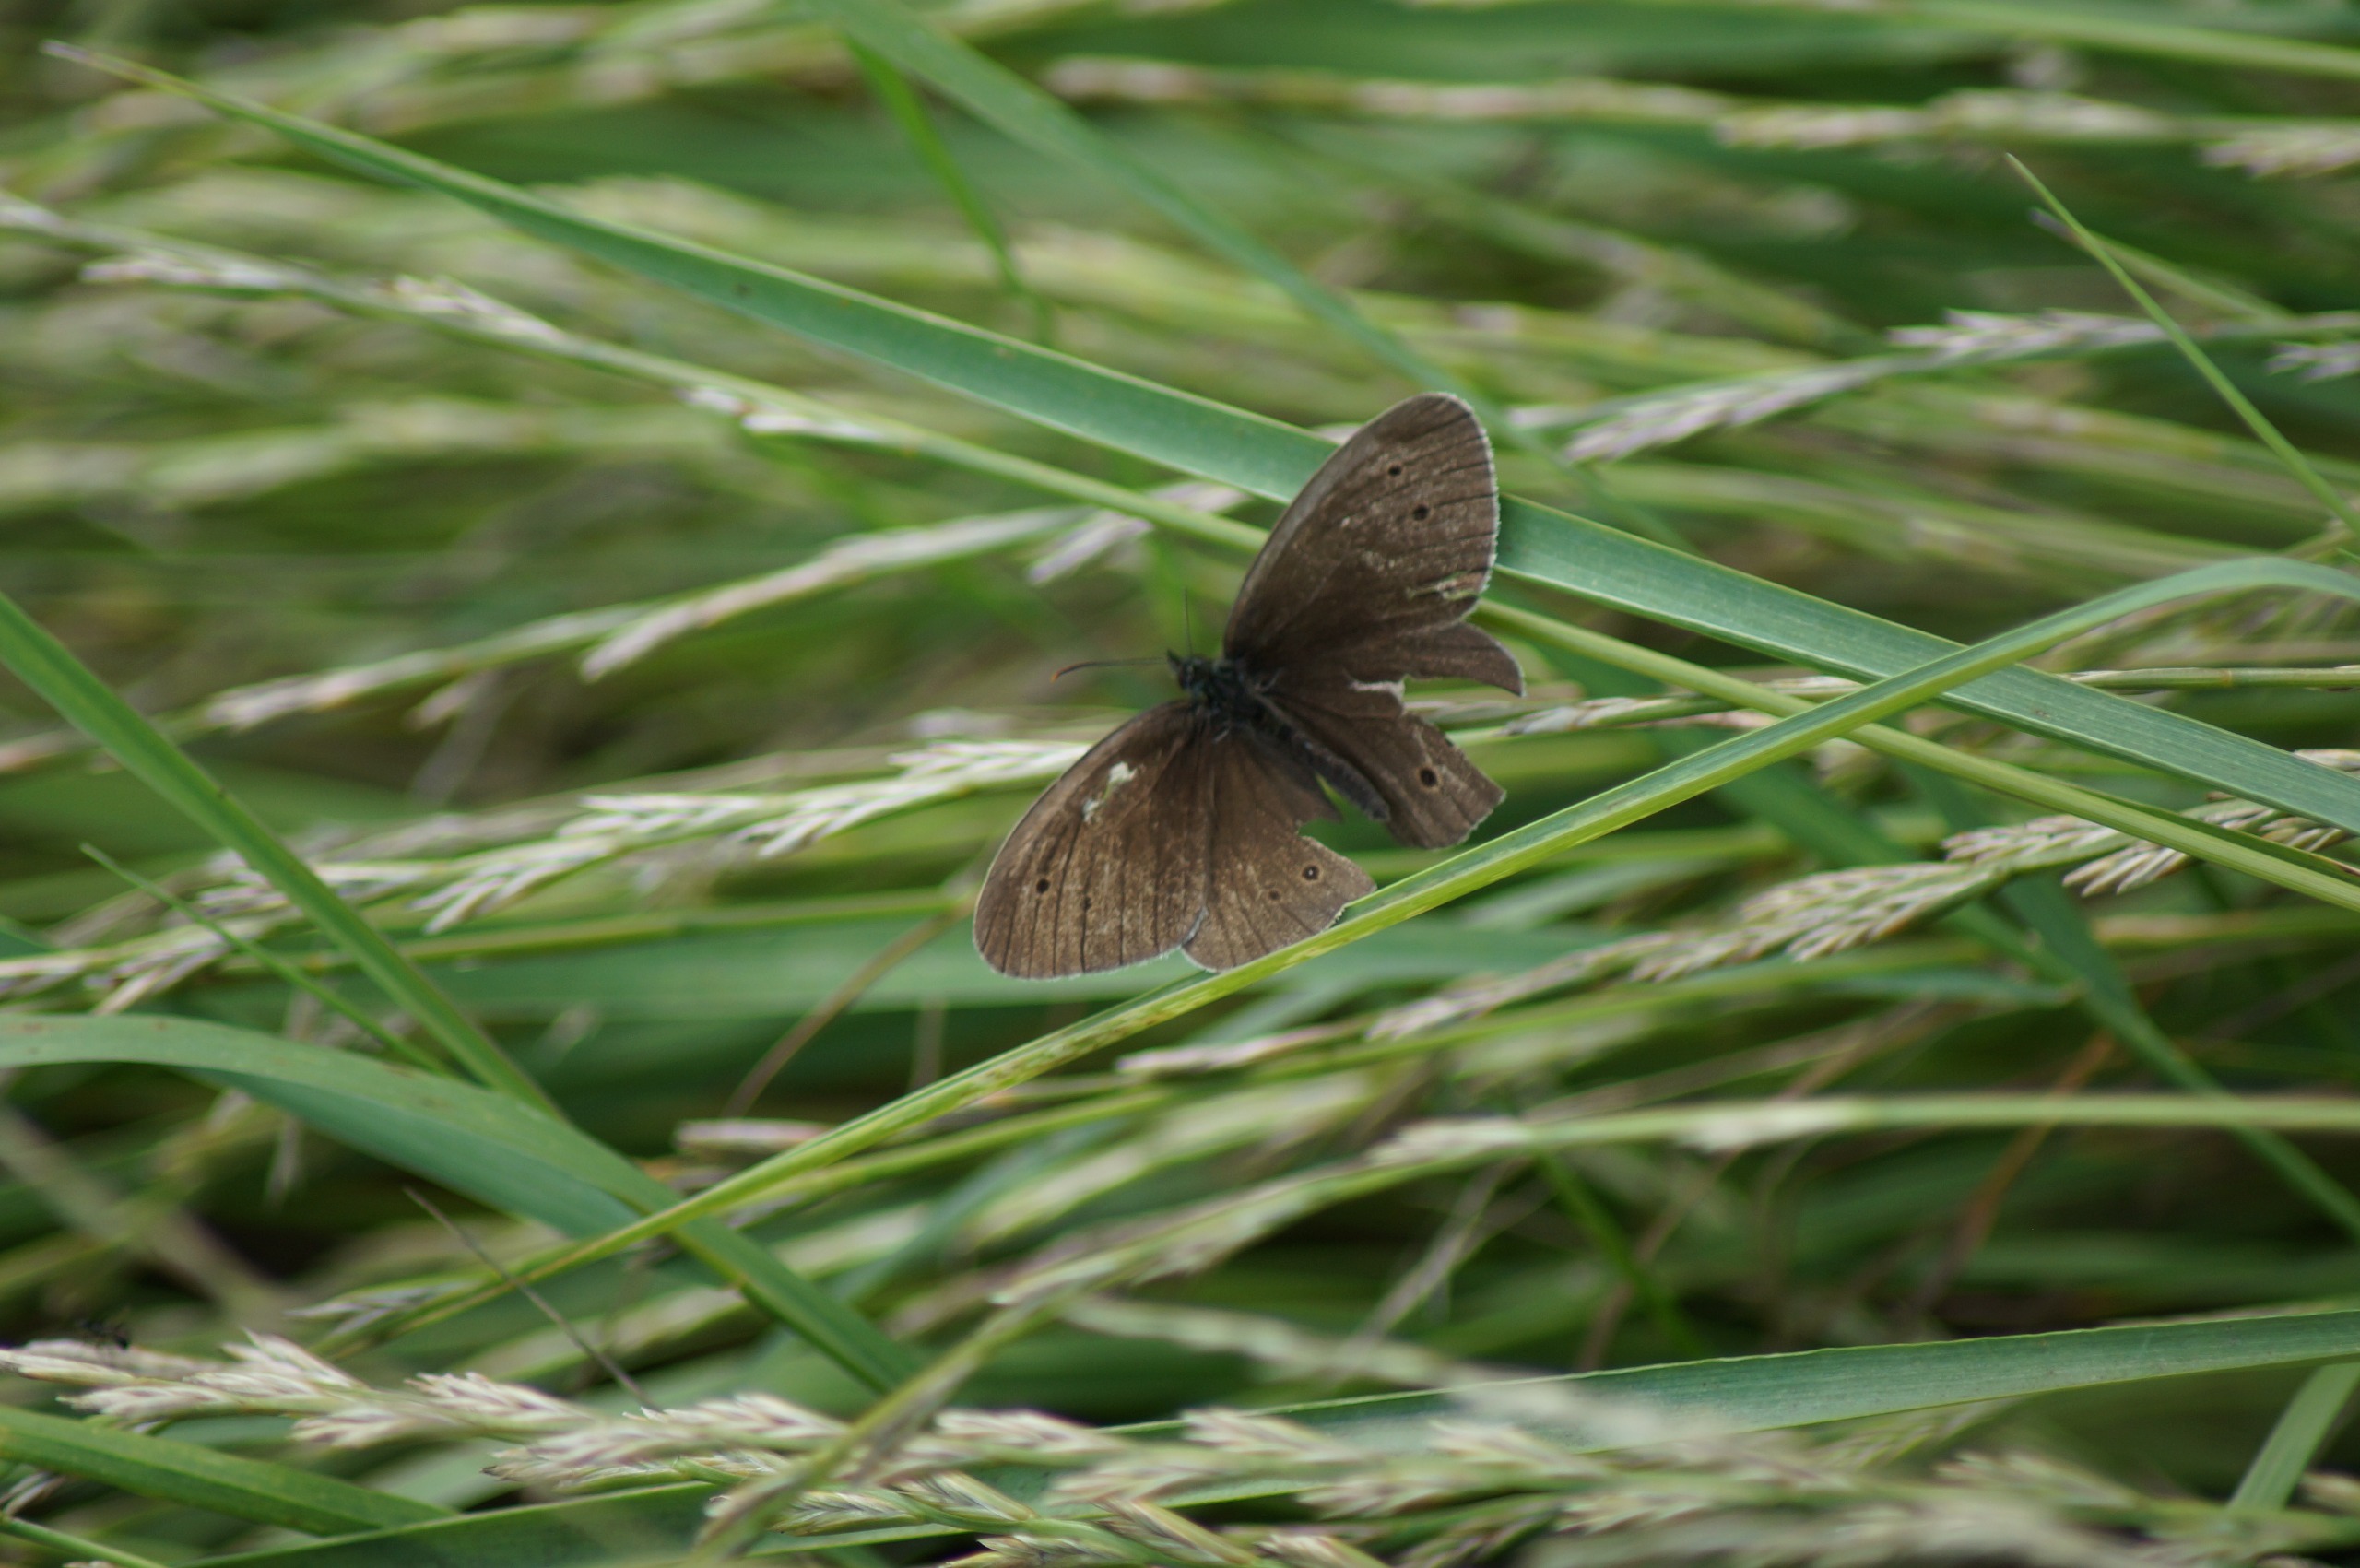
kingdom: Animalia
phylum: Arthropoda
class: Insecta
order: Lepidoptera
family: Nymphalidae
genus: Aphantopus
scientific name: Aphantopus hyperantus
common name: Engrandøje
